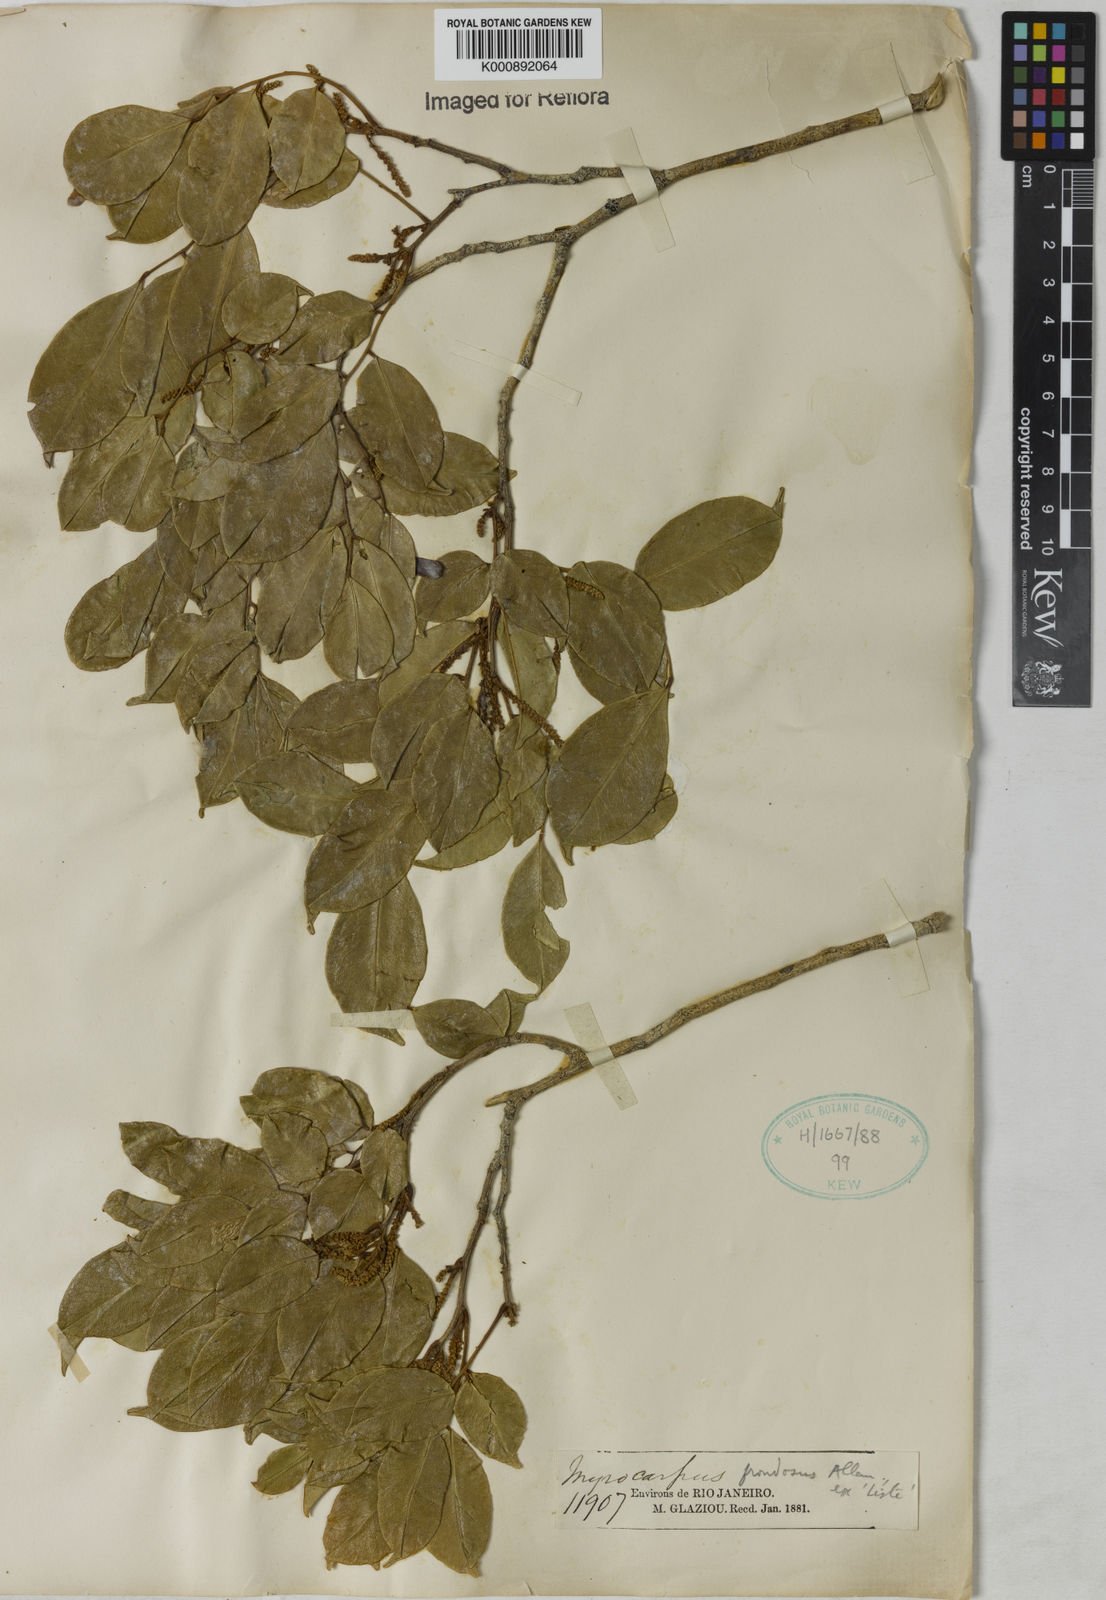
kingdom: Plantae
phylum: Tracheophyta
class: Magnoliopsida
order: Fabales
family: Fabaceae
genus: Myrocarpus
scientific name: Myrocarpus
